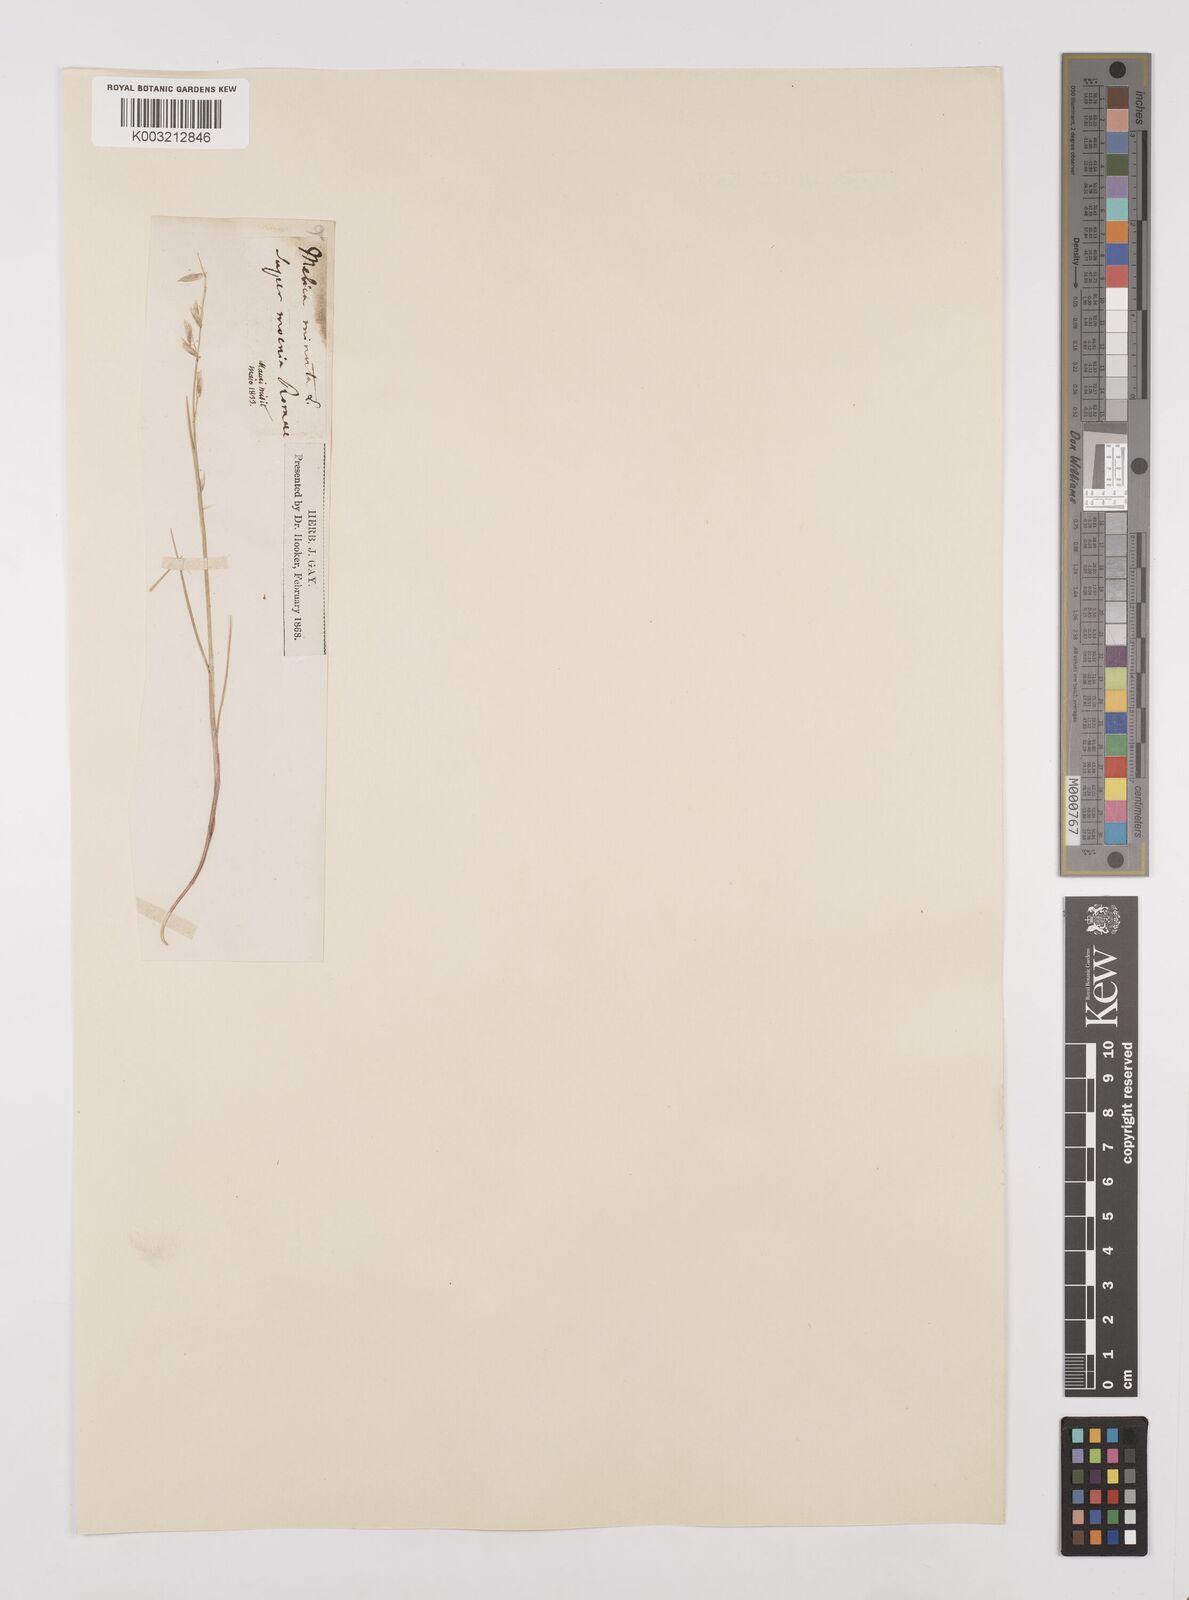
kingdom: Plantae
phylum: Tracheophyta
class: Liliopsida
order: Poales
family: Poaceae
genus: Melica
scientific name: Melica minuta
